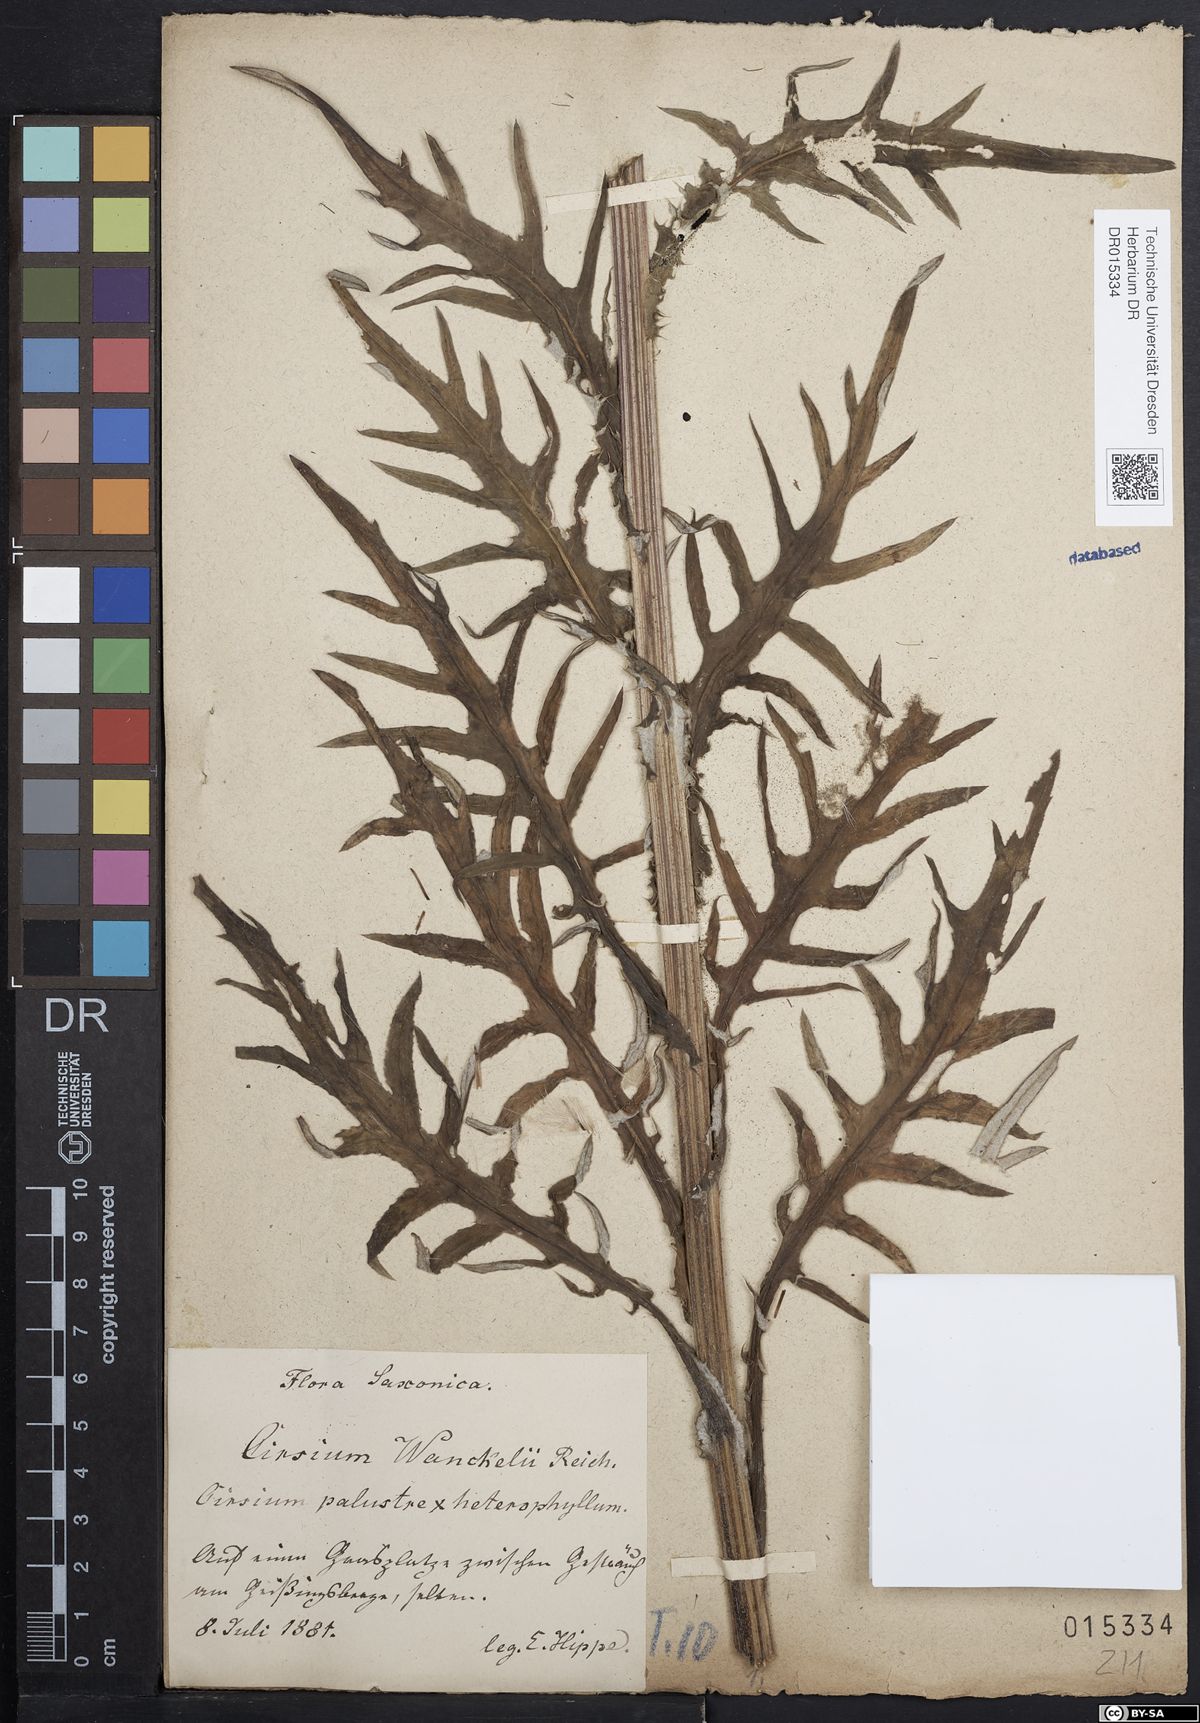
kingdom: Plantae
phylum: Tracheophyta
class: Magnoliopsida
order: Asterales
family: Asteraceae
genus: Cirsium
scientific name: Cirsium wankelii
